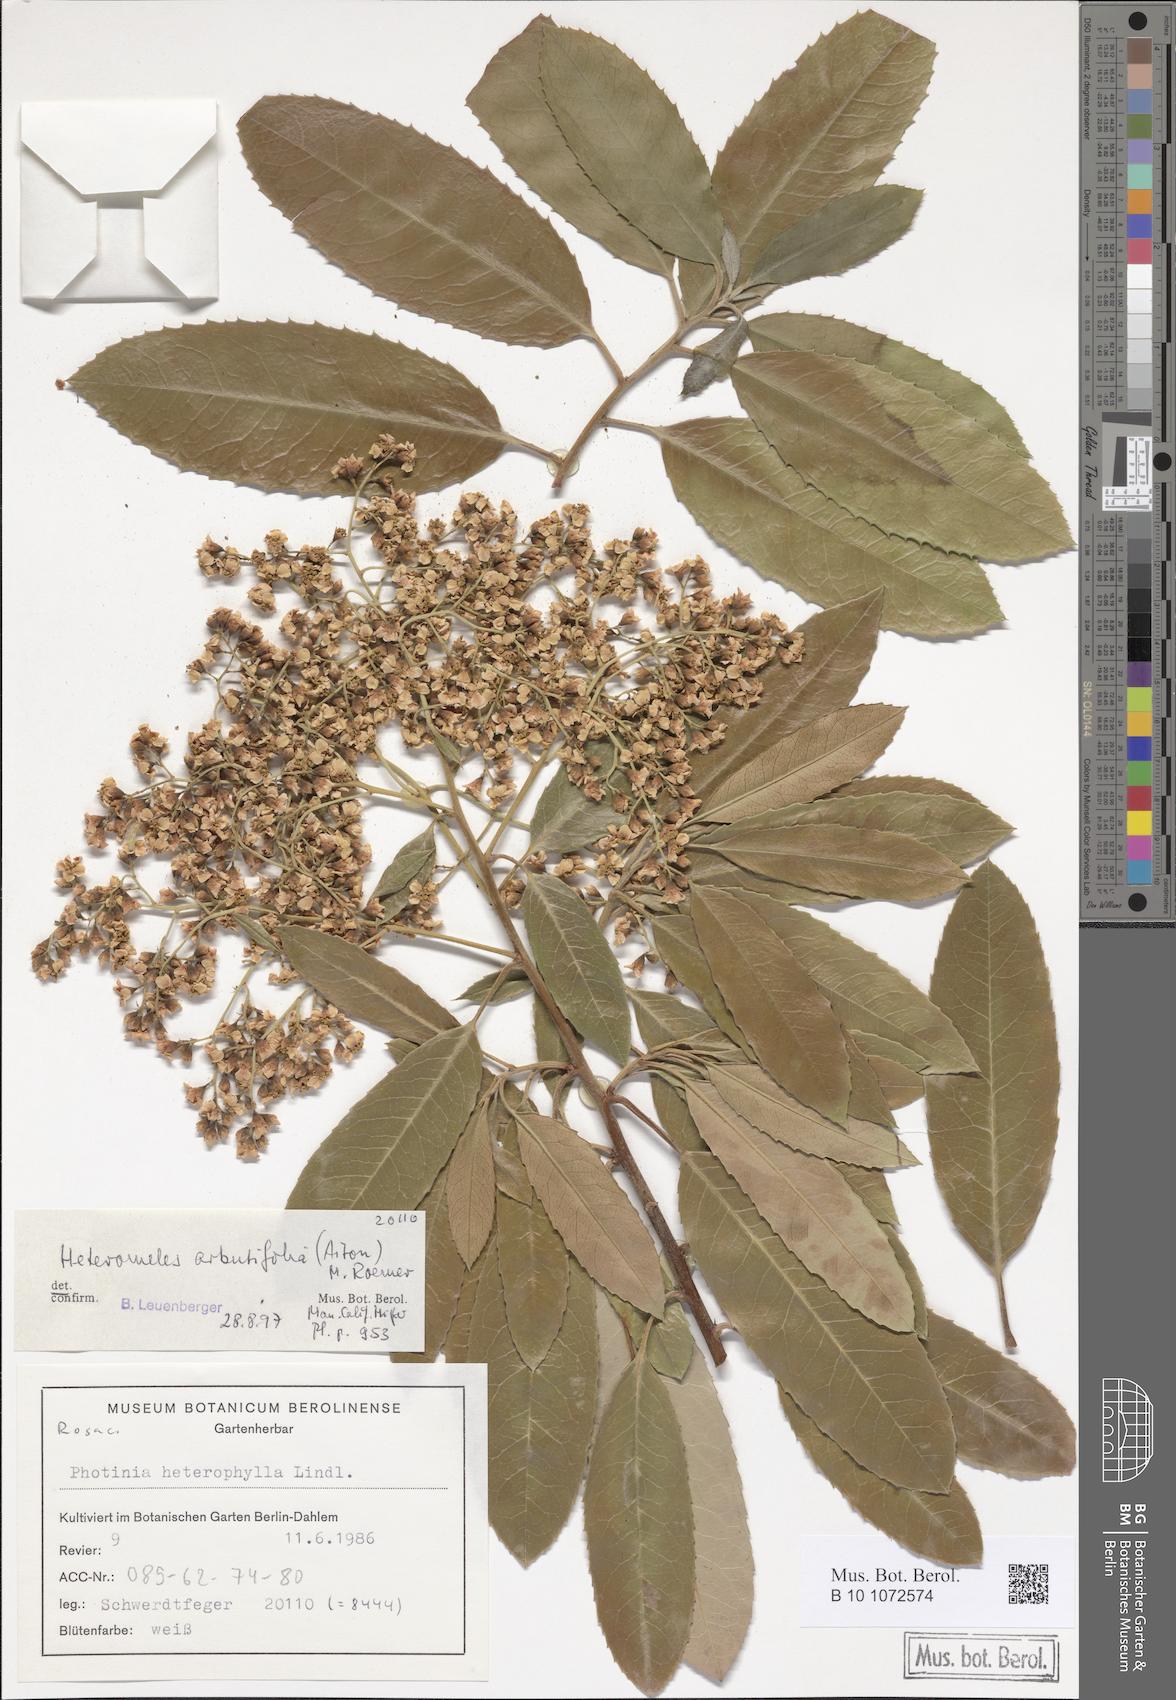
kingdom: Plantae
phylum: Tracheophyta
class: Magnoliopsida
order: Rosales
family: Rosaceae
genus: Heteromeles
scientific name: Heteromeles arbutifolia
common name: California-holly
